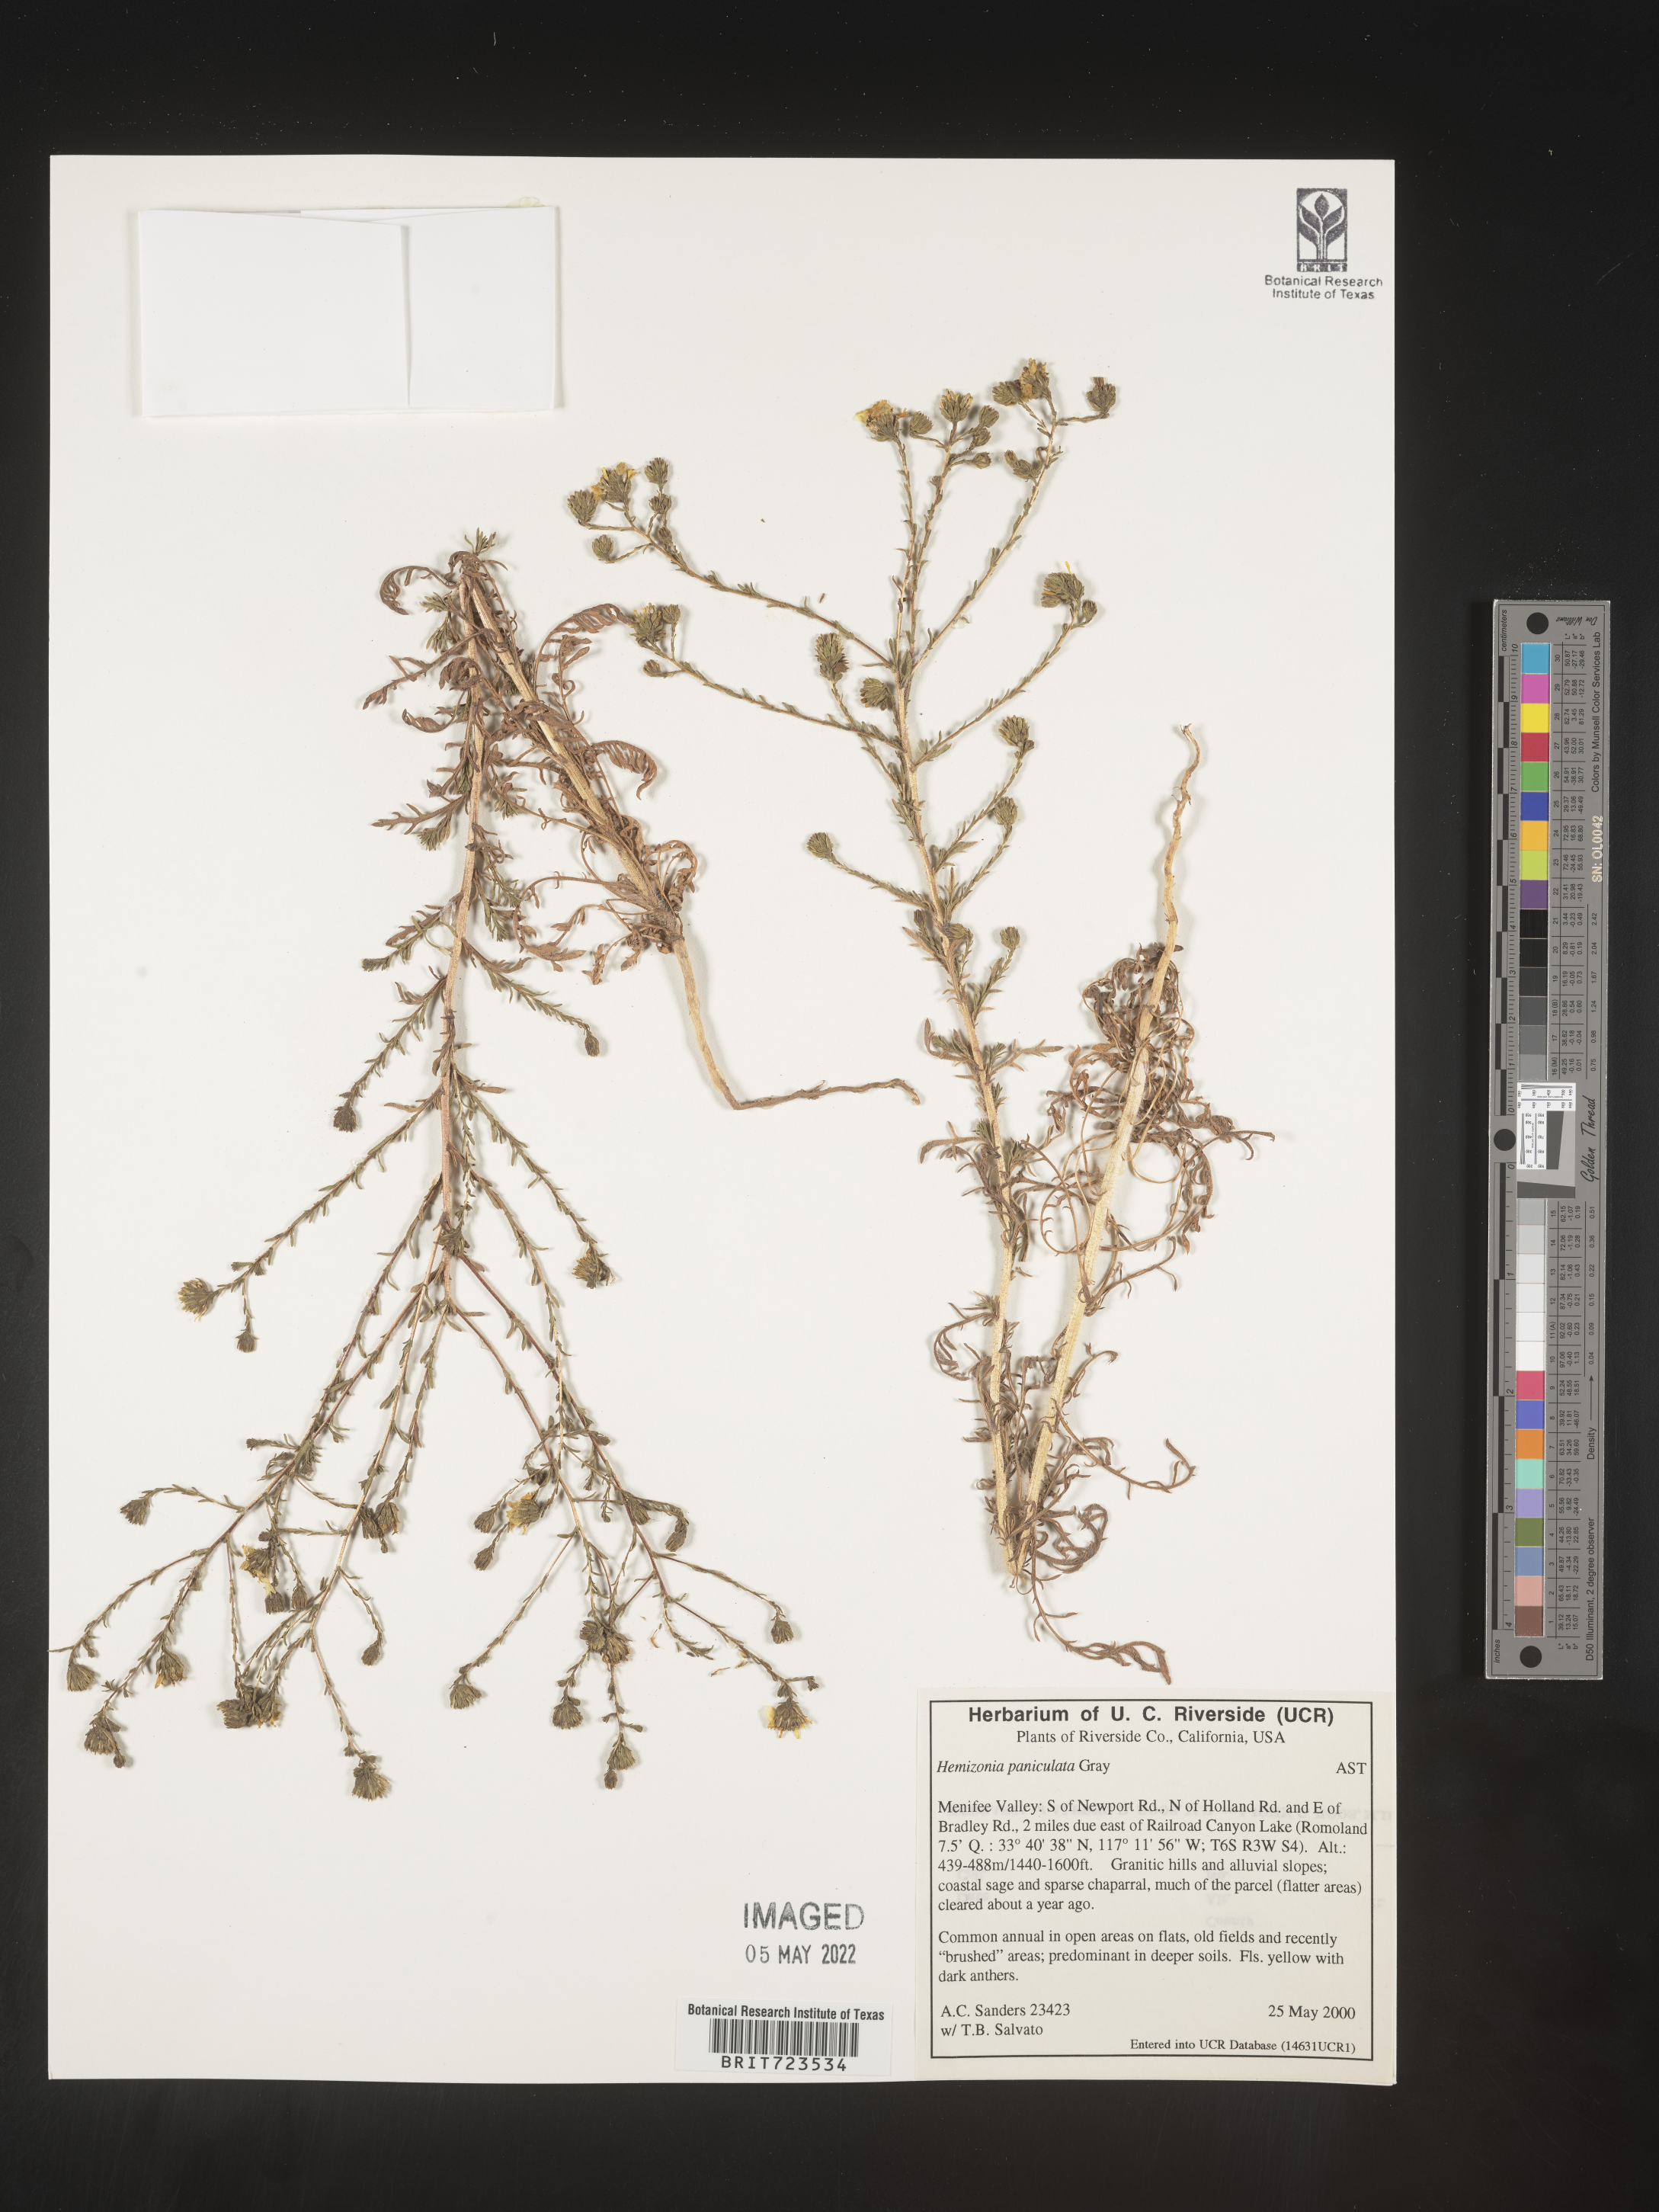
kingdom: Plantae
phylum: Tracheophyta
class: Magnoliopsida
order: Asterales
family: Asteraceae
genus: Hemizonia
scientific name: Hemizonia
